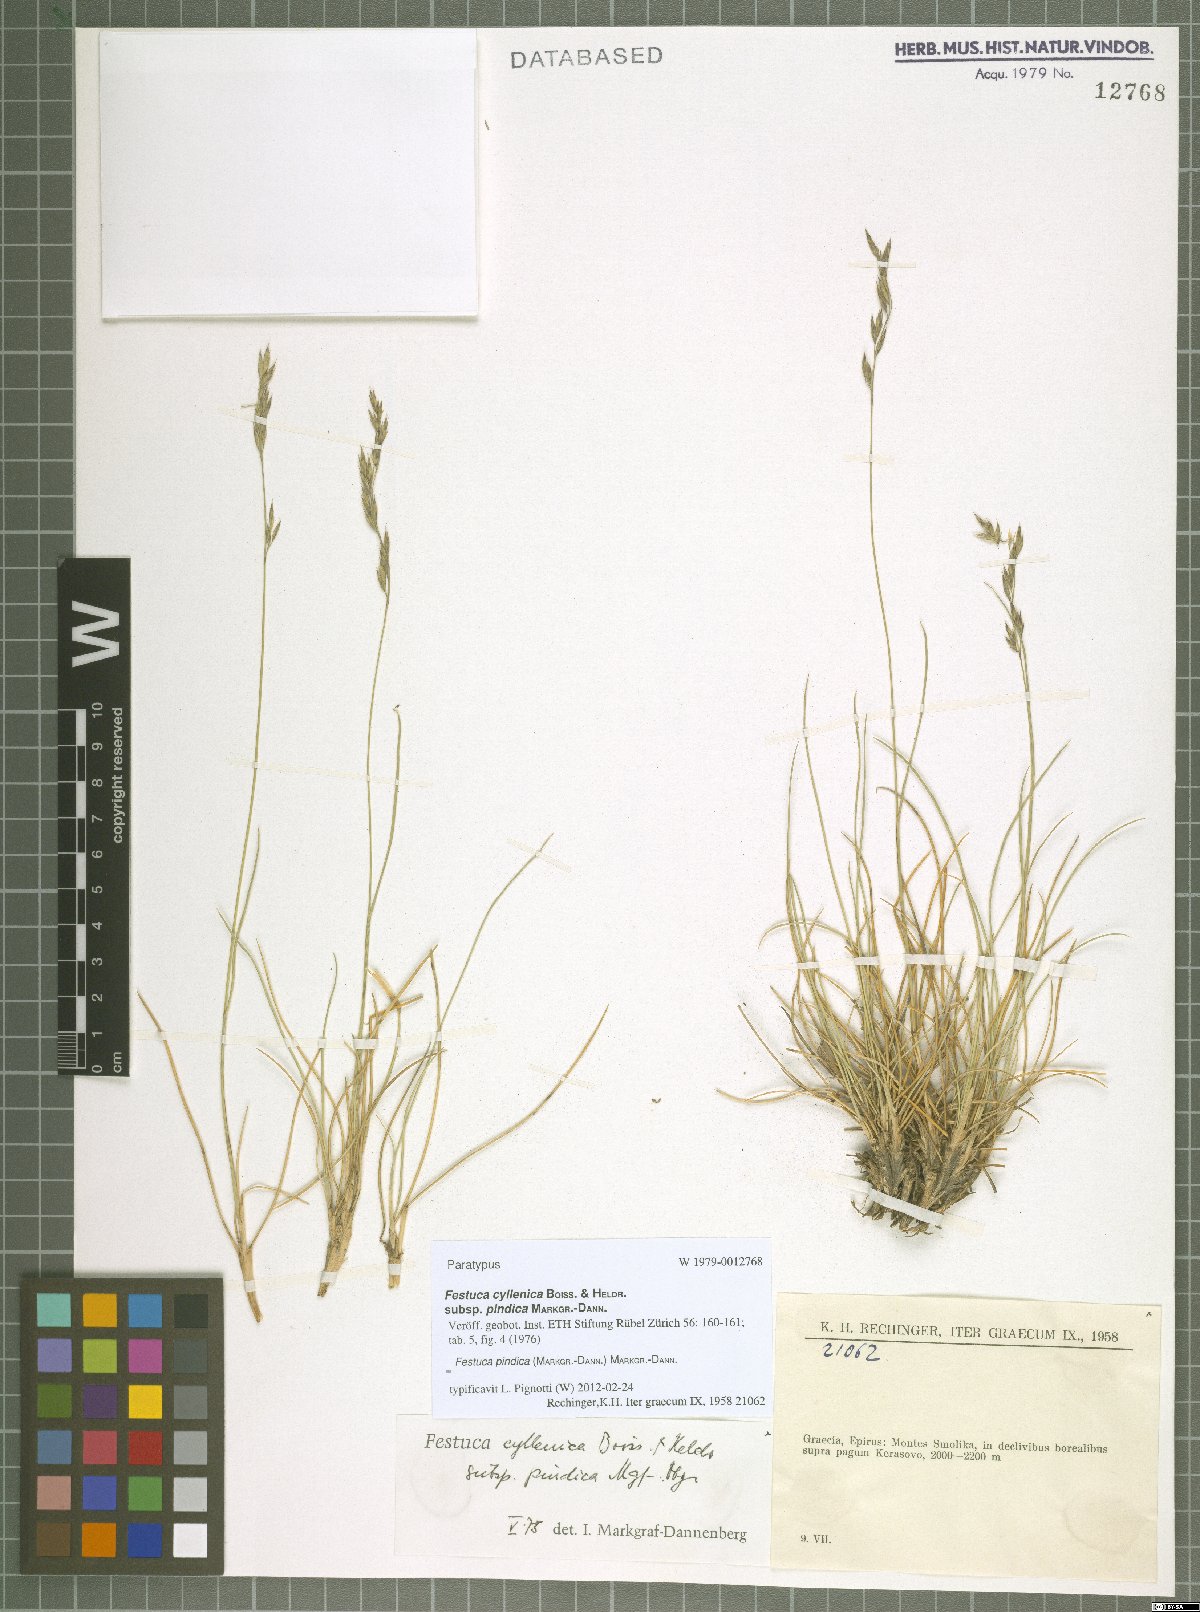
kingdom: Plantae
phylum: Tracheophyta
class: Liliopsida
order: Poales
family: Poaceae
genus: Festuca
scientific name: Festuca pindica
